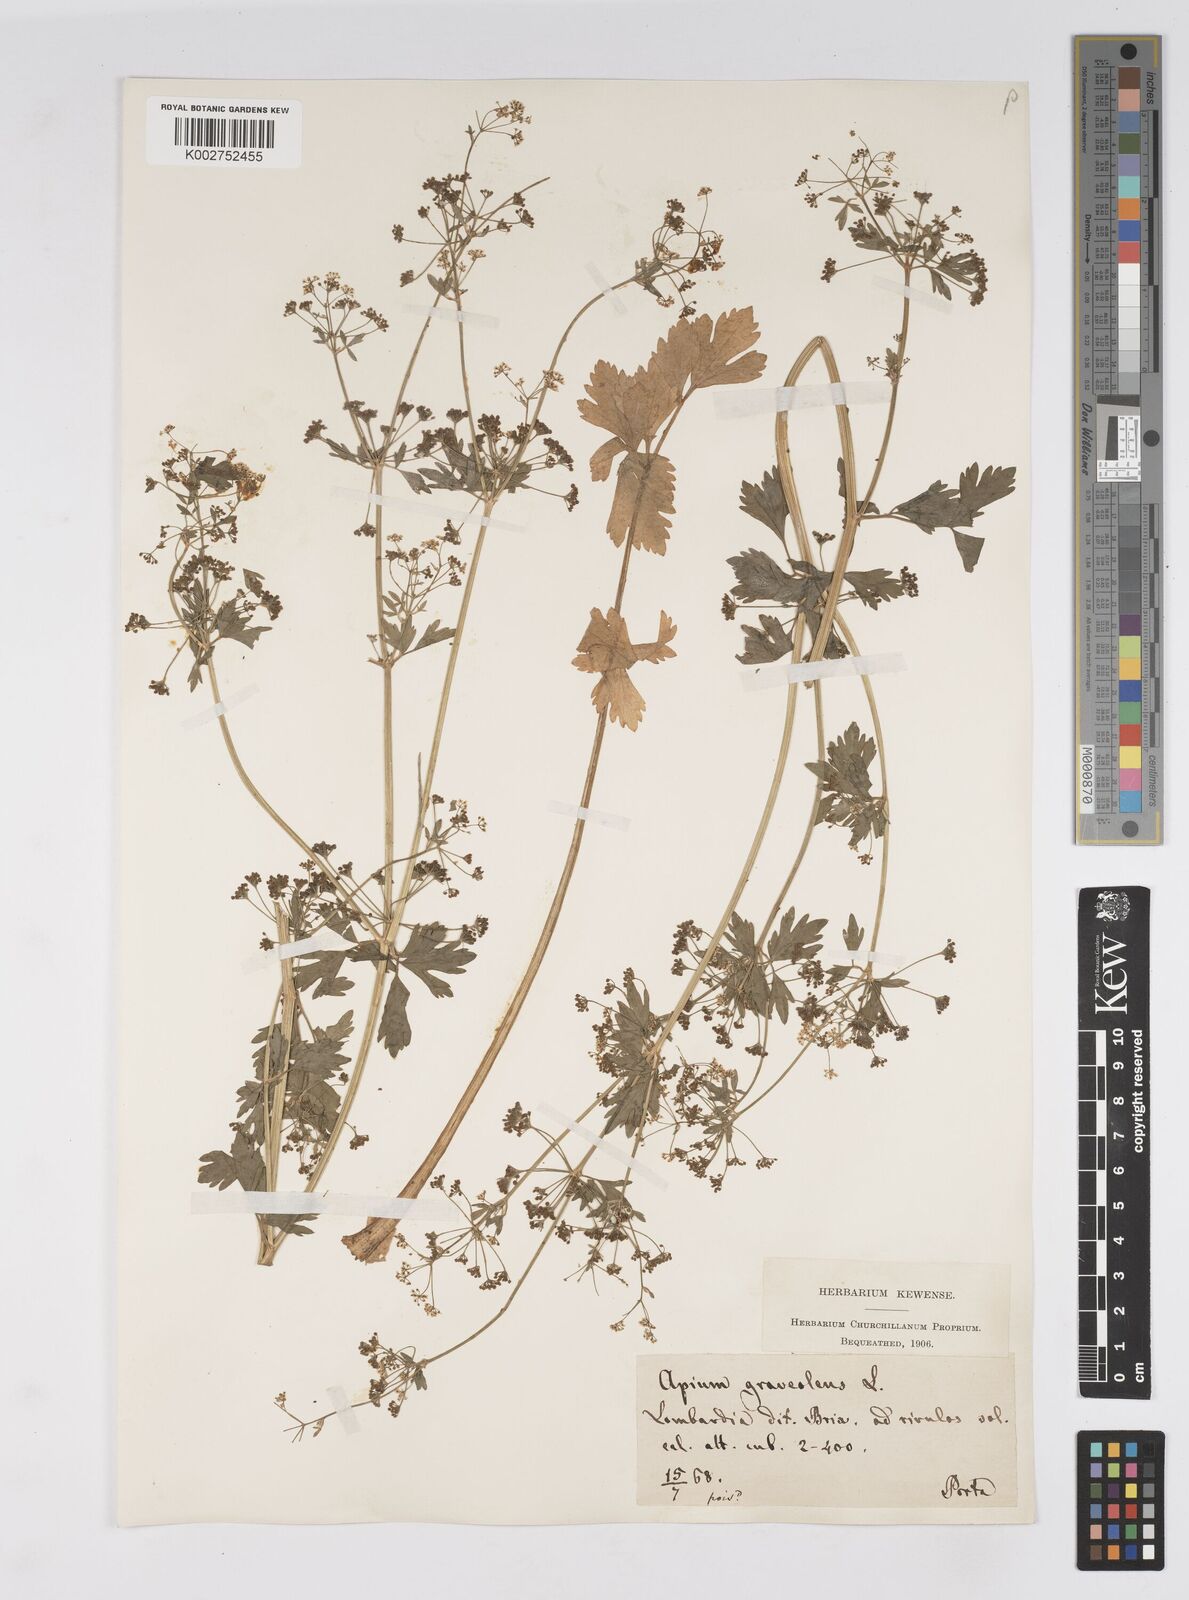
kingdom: Plantae
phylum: Tracheophyta
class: Magnoliopsida
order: Apiales
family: Apiaceae
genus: Apium
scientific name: Apium graveolens
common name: Wild celery
